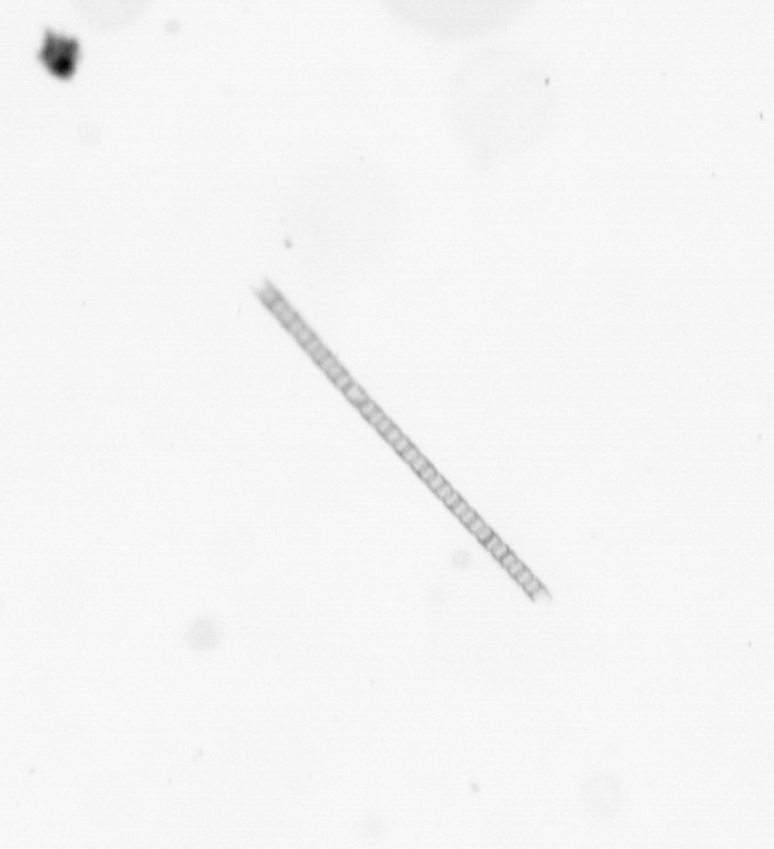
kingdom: Chromista
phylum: Ochrophyta
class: Bacillariophyceae
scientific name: Bacillariophyceae
